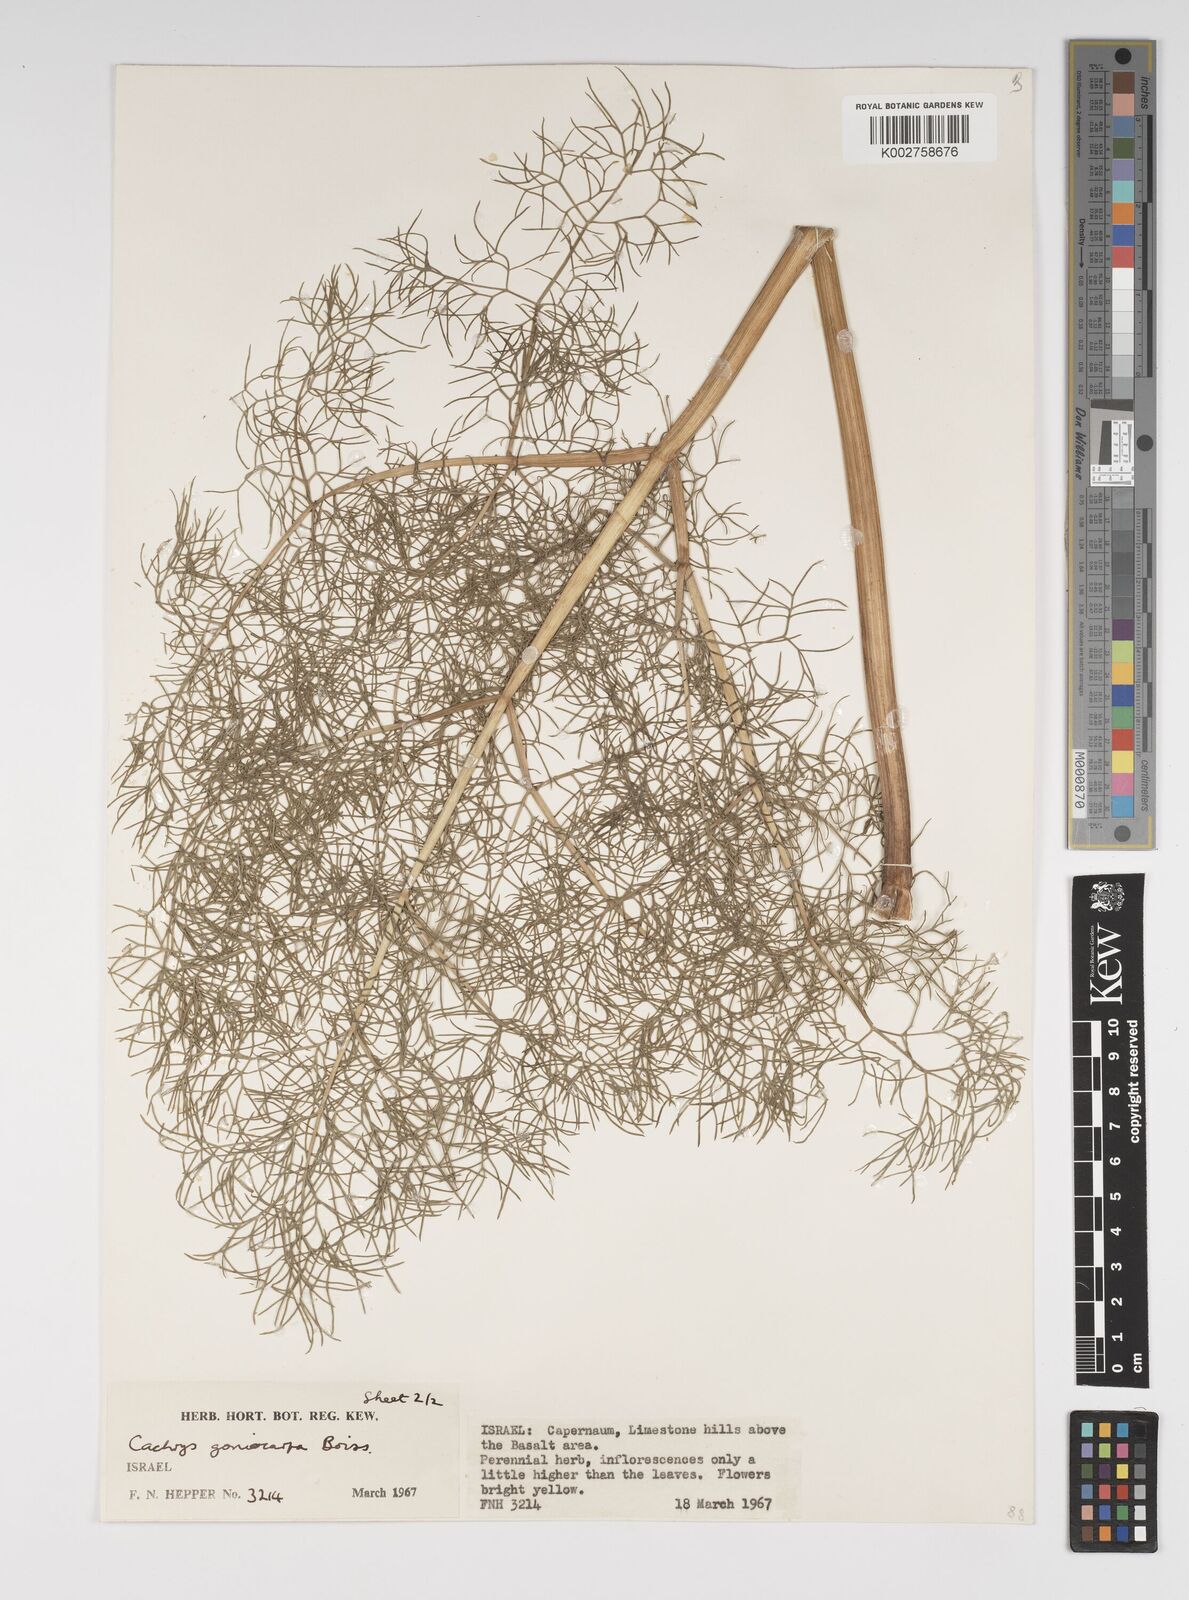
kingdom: Plantae
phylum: Tracheophyta
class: Magnoliopsida
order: Apiales
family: Apiaceae
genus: Prangos
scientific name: Prangos ferulacea
